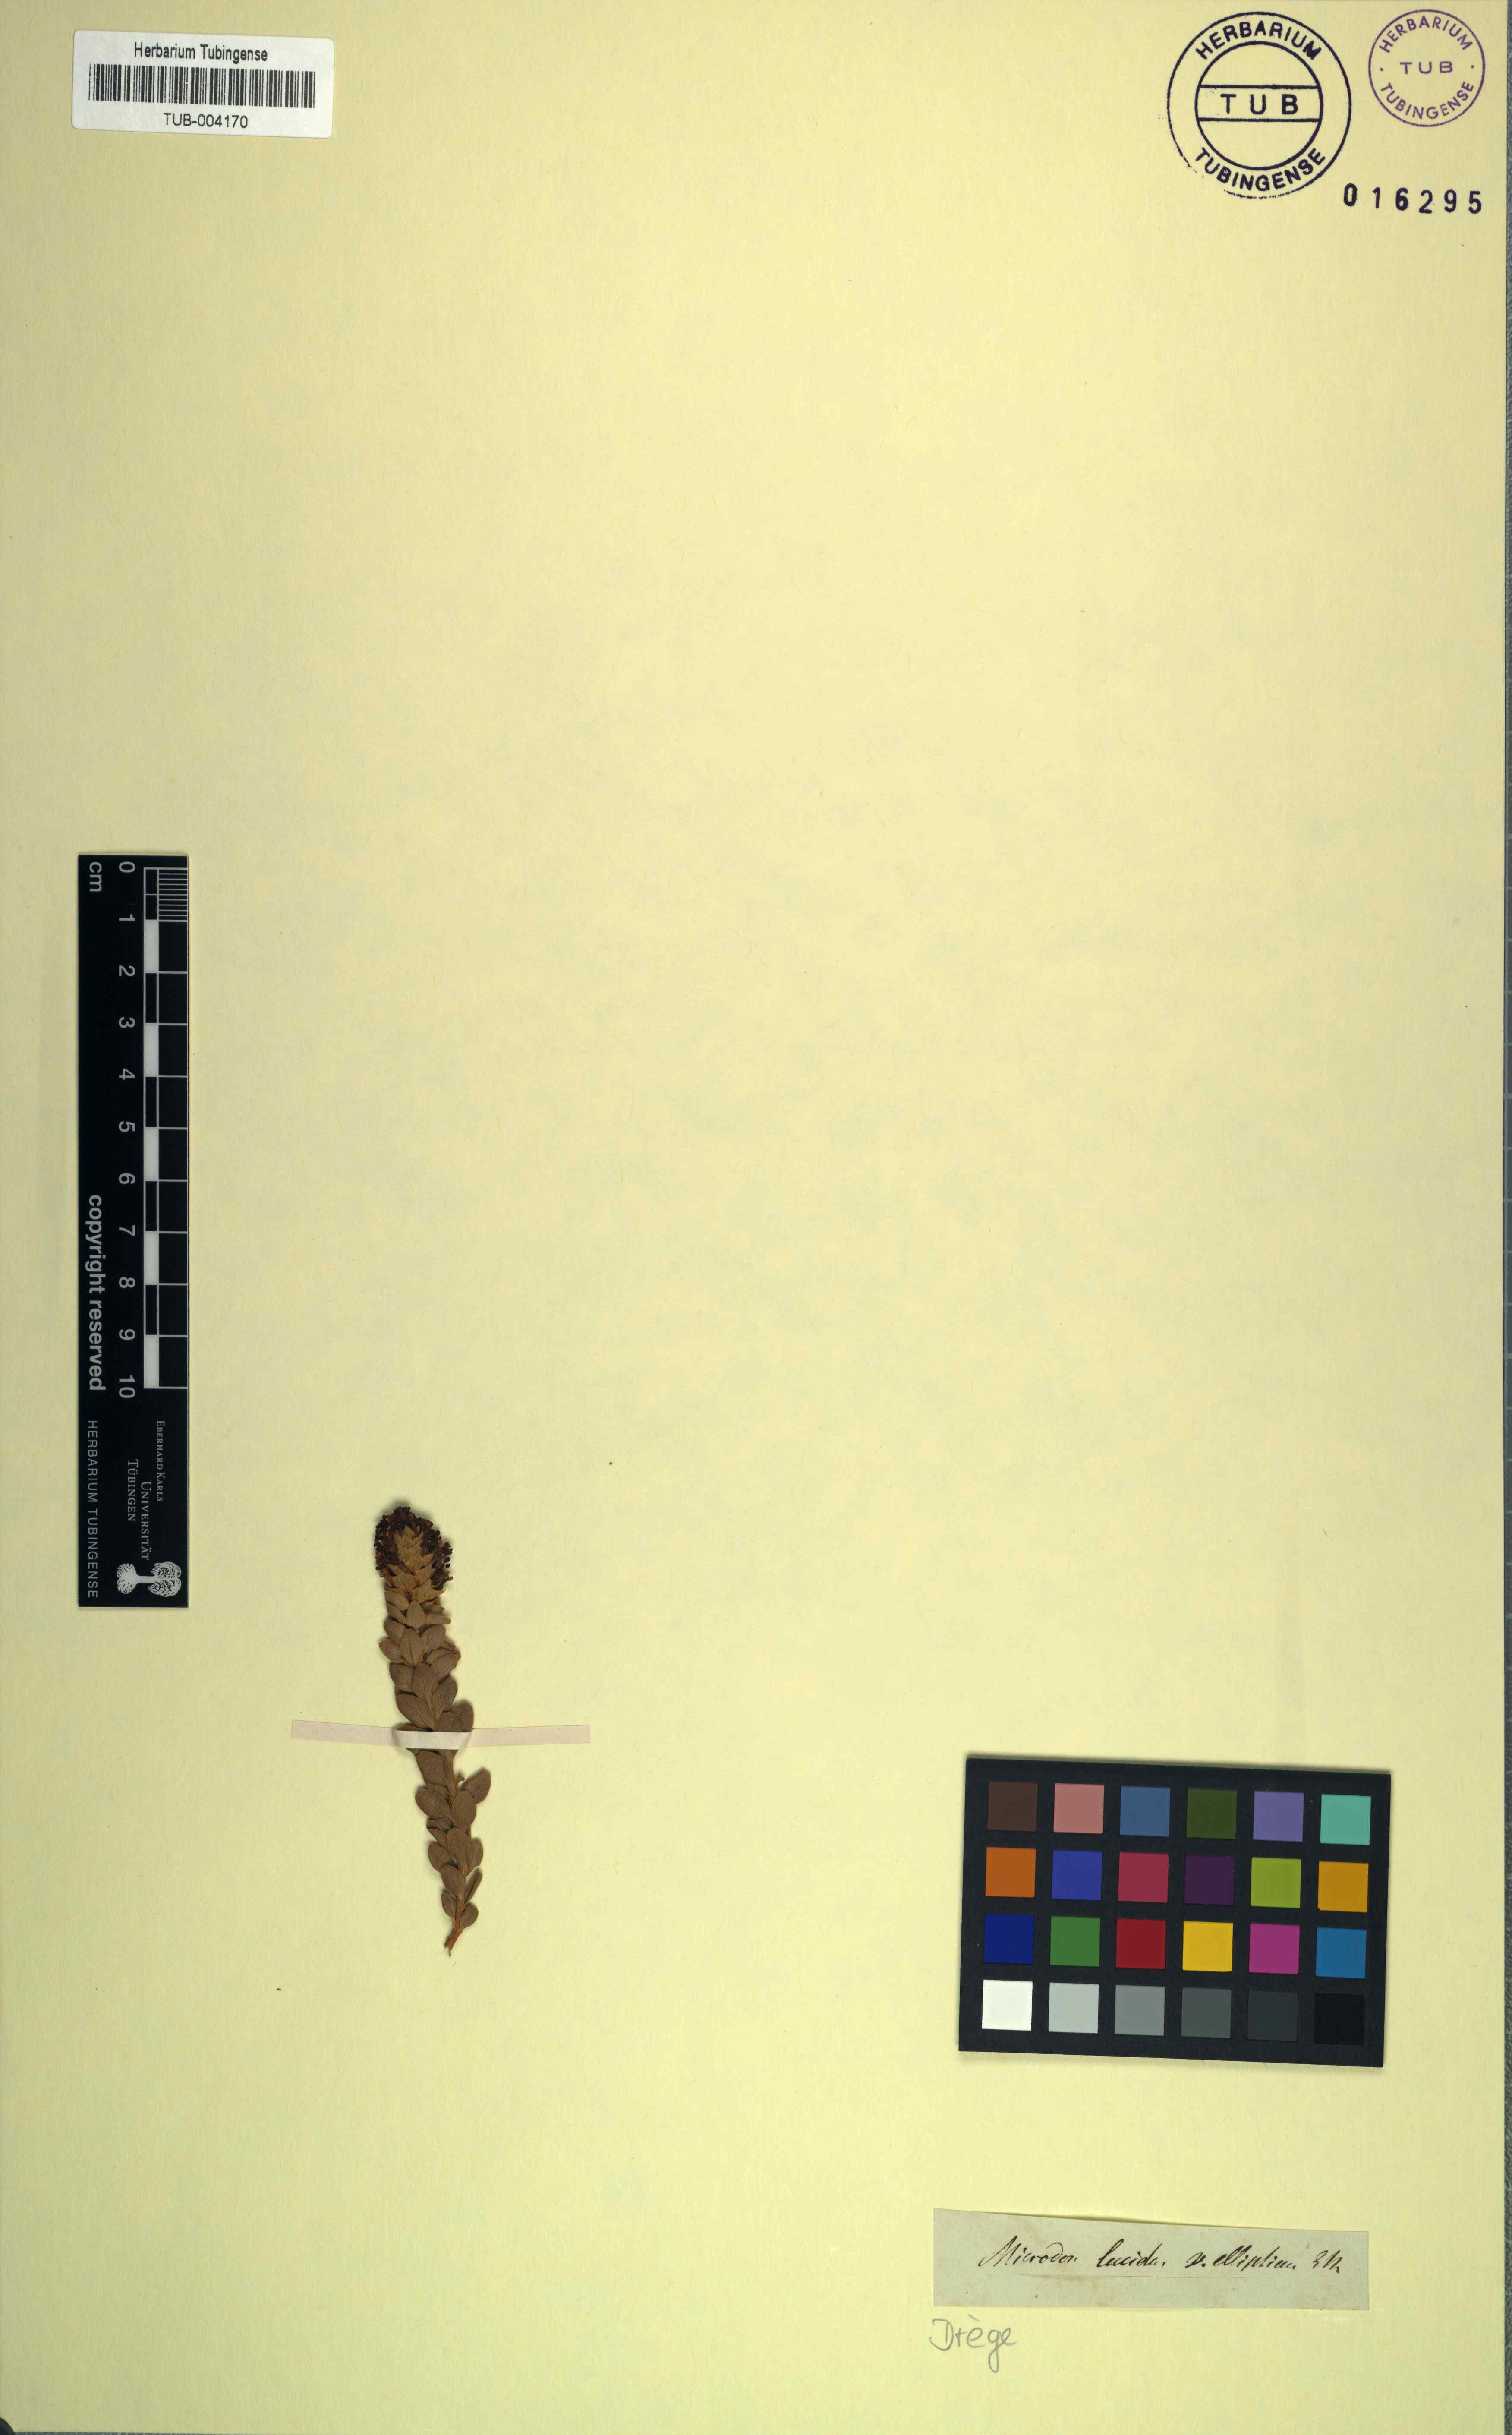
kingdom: Plantae
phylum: Tracheophyta
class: Magnoliopsida
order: Lamiales
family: Scrophulariaceae
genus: Microdon
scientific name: Microdon parviflorus
